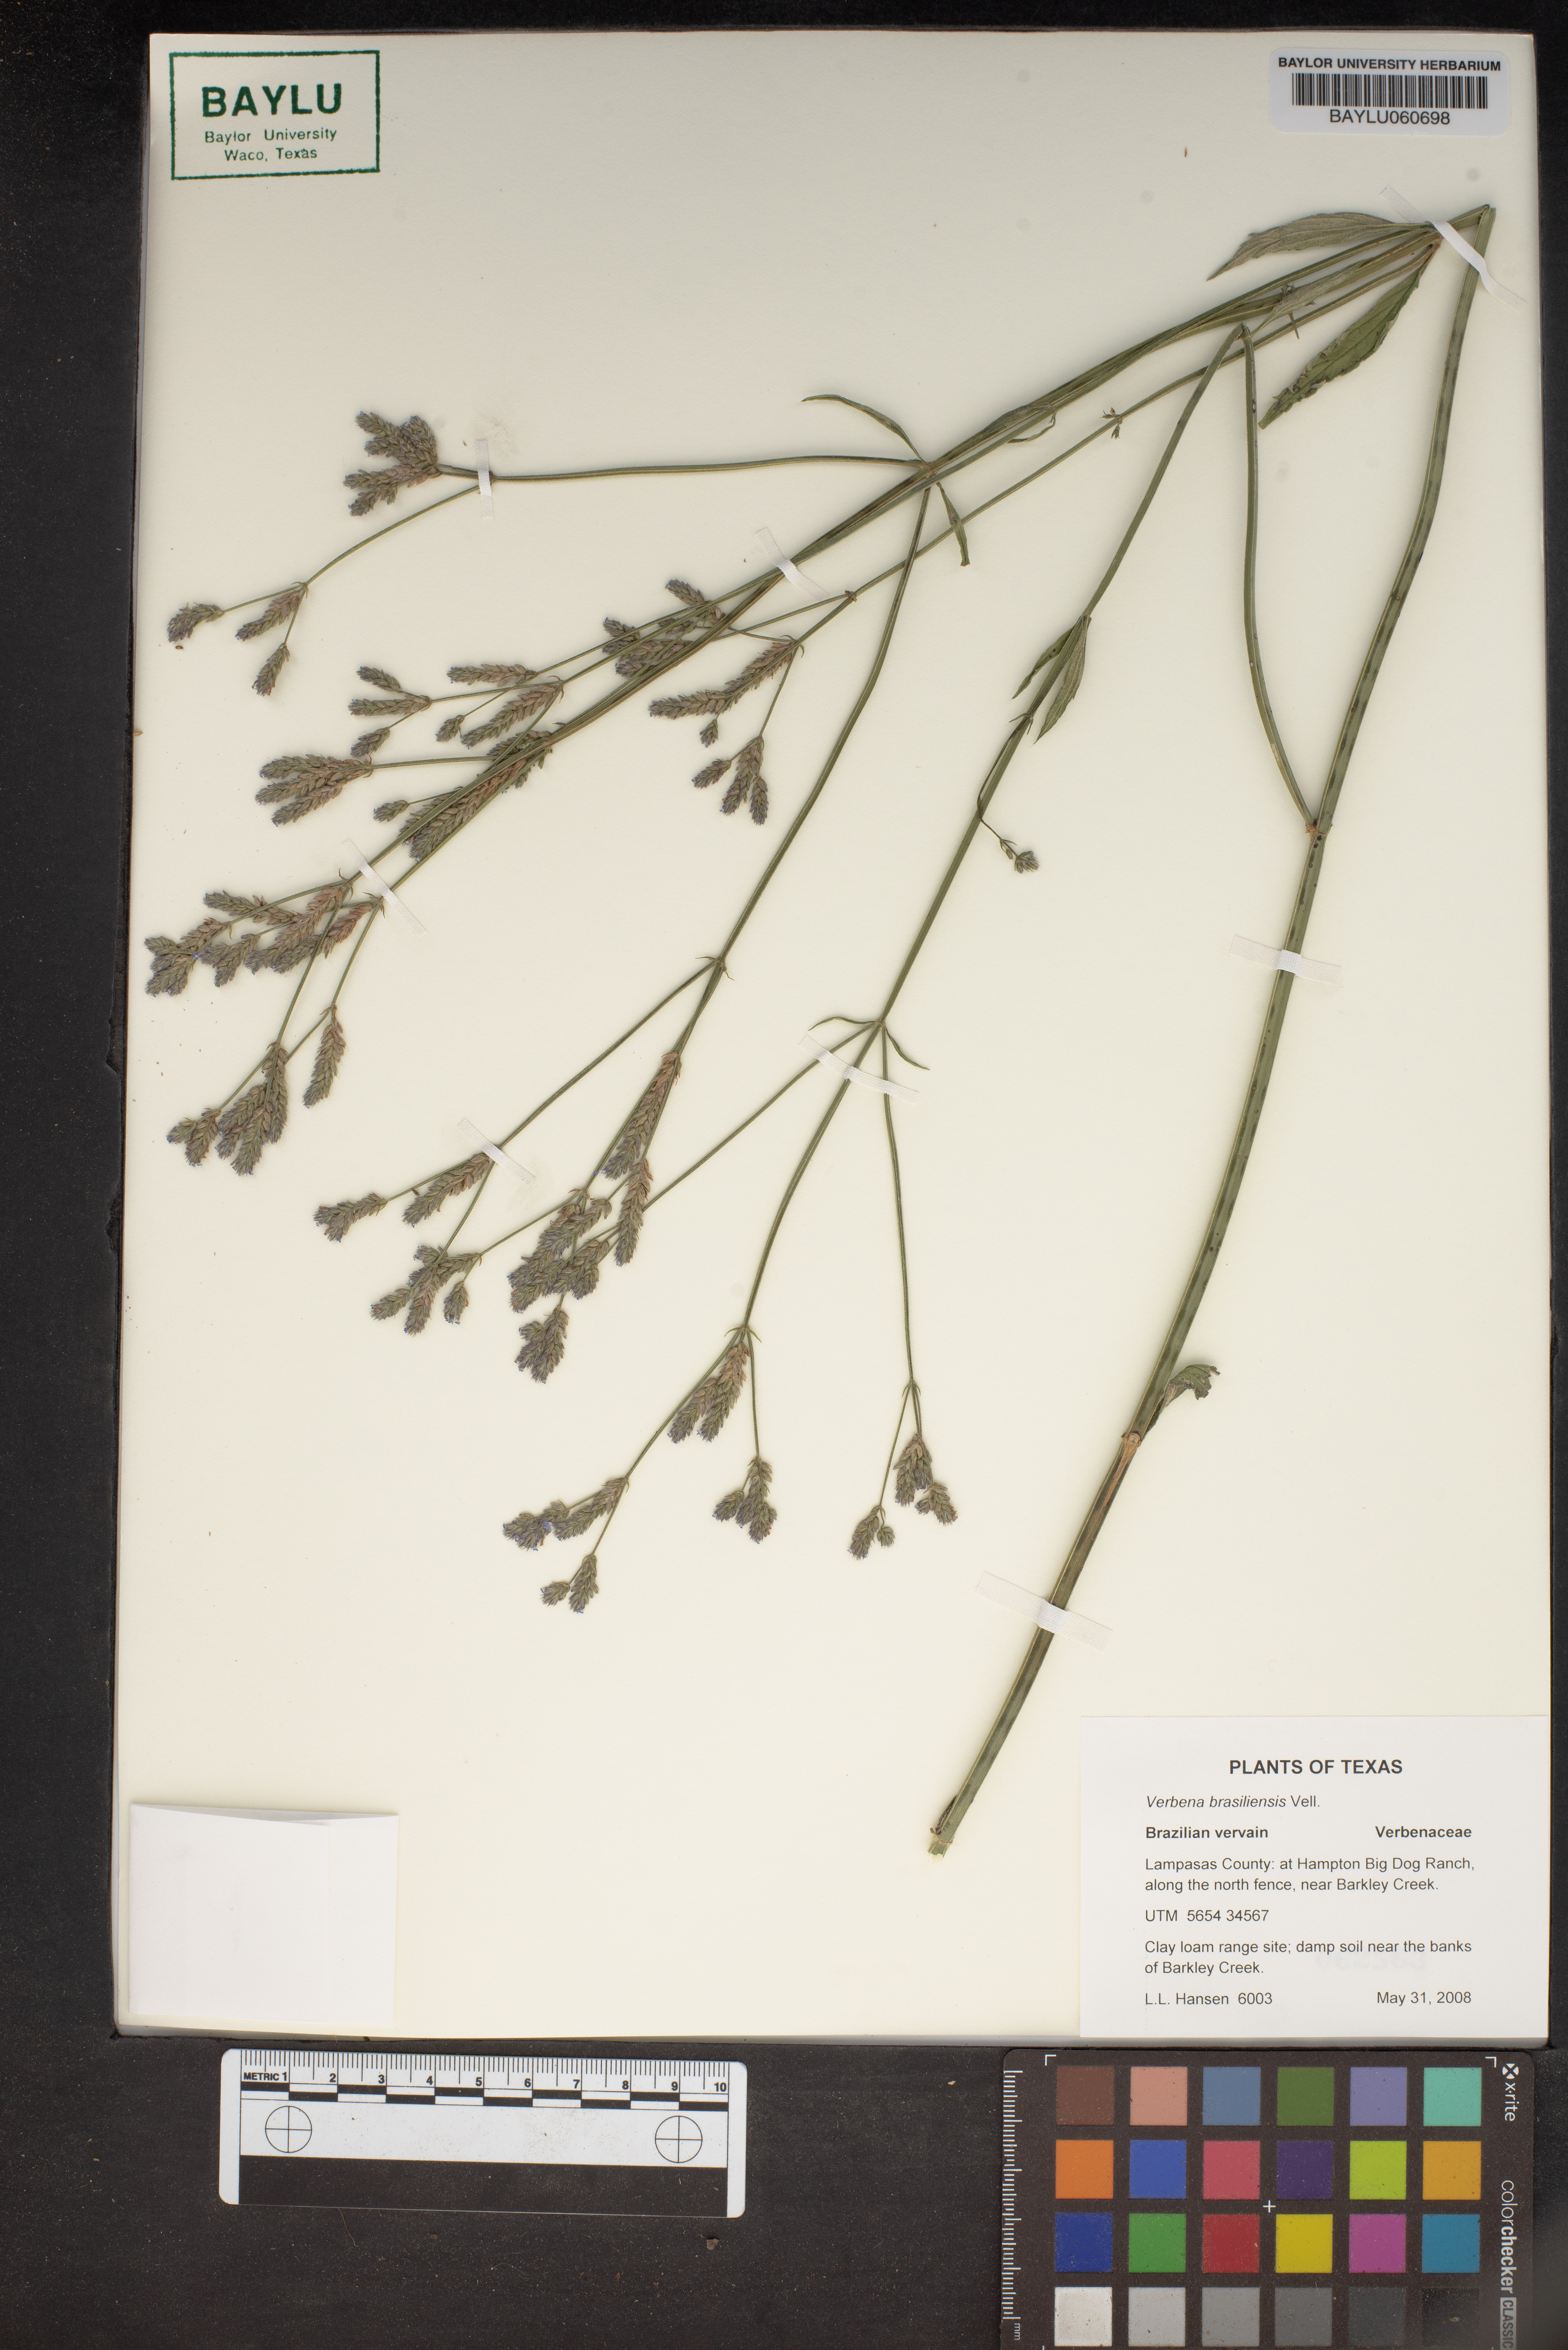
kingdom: Plantae
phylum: Tracheophyta
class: Magnoliopsida
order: Lamiales
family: Verbenaceae
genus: Verbena
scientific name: Verbena brasiliensis
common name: Brazilian vervain
